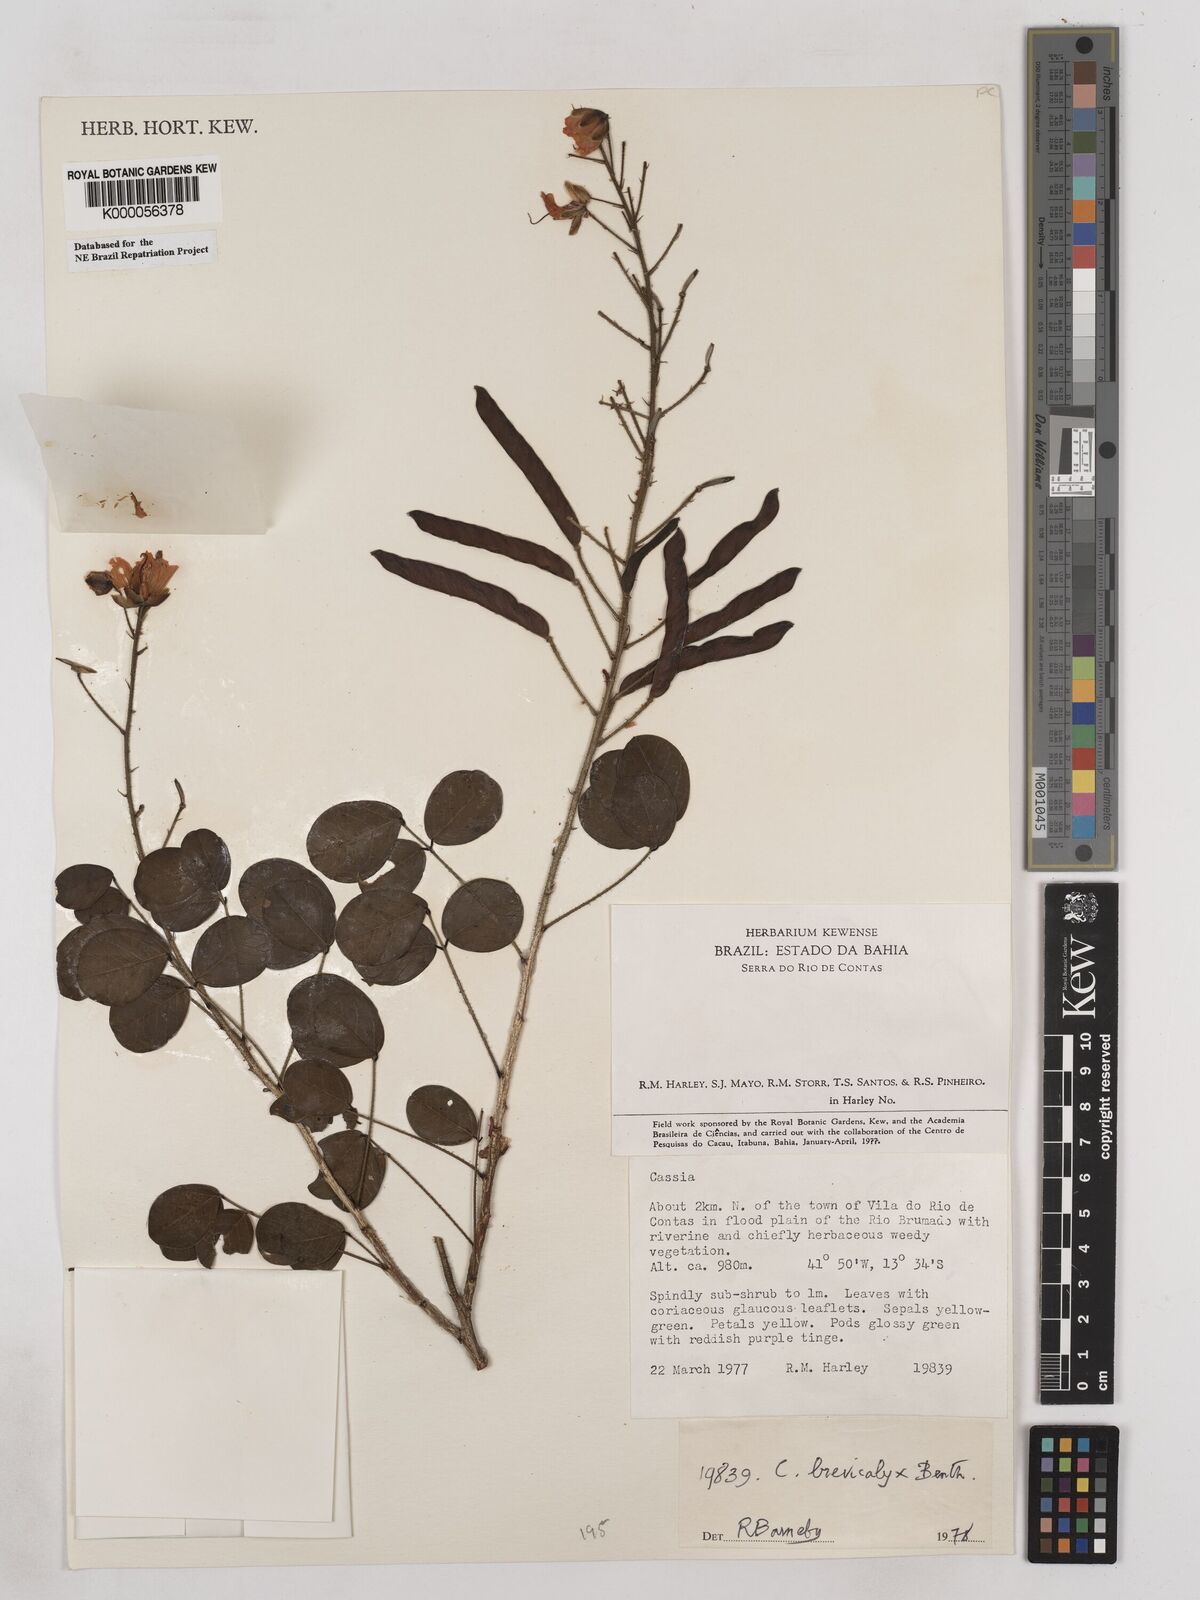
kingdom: Plantae
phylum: Tracheophyta
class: Magnoliopsida
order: Fabales
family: Fabaceae
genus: Chamaecrista
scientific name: Chamaecrista brevicalyx
